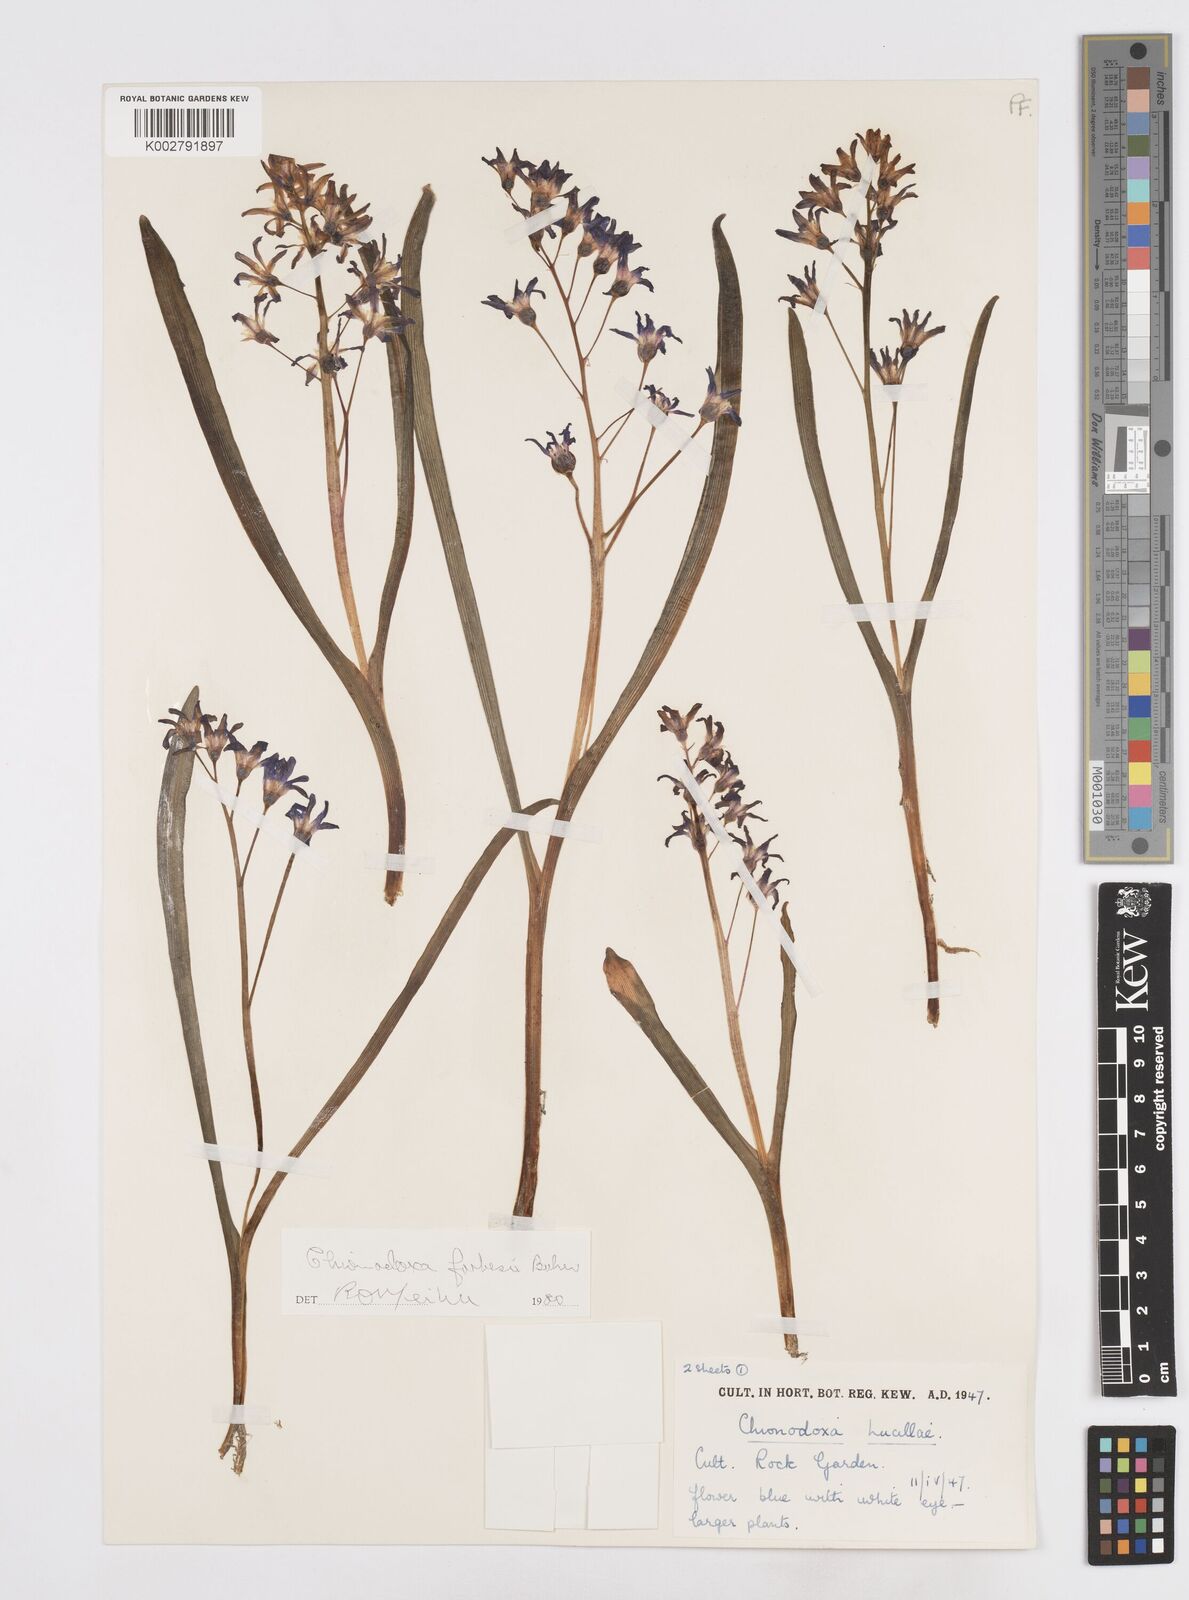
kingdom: Plantae
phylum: Tracheophyta
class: Liliopsida
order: Asparagales
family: Asparagaceae
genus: Scilla
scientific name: Scilla forbesii
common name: Glory-of-the-snow
